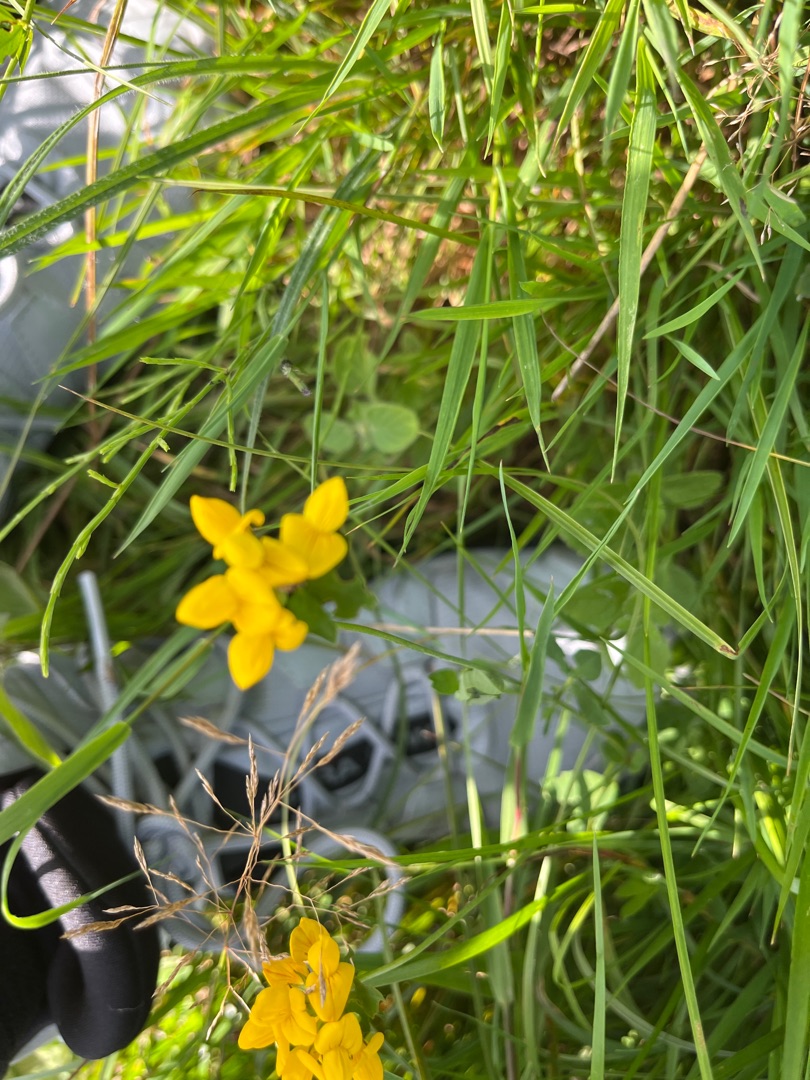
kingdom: Plantae
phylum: Tracheophyta
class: Magnoliopsida
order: Fabales
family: Fabaceae
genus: Lotus
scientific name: Lotus pedunculatus
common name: Sump-kællingetand
